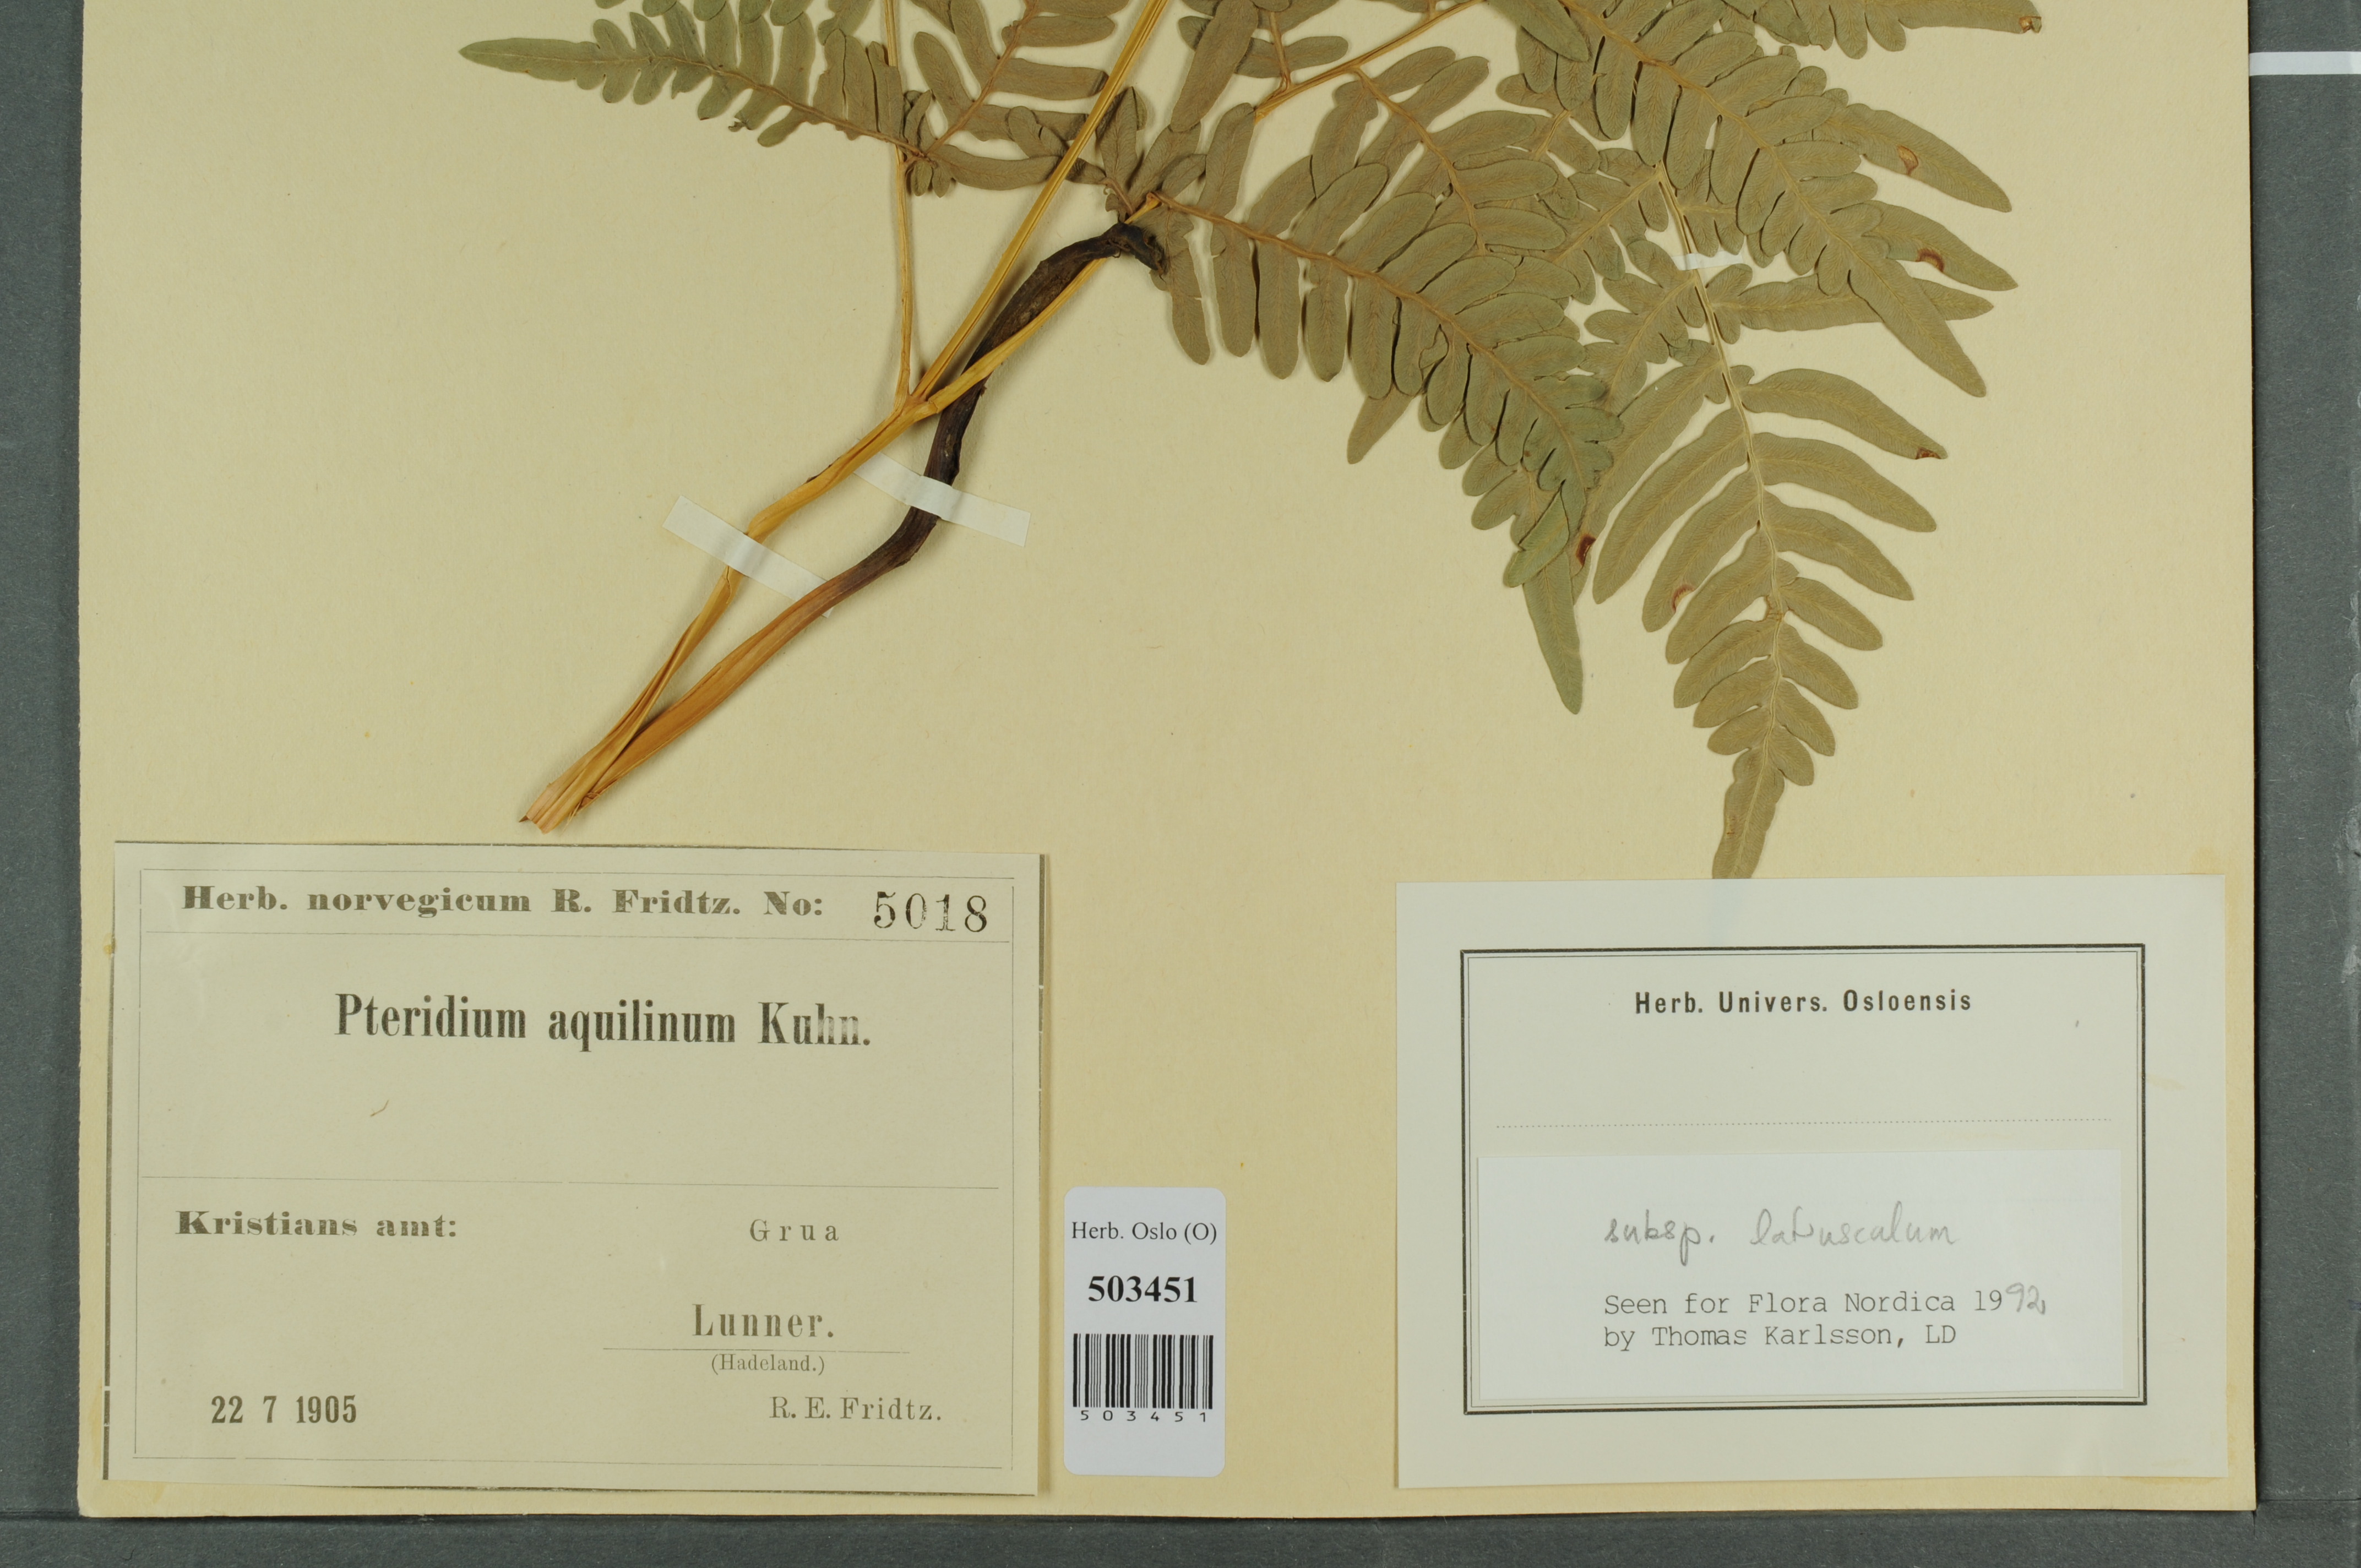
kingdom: Plantae
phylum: Tracheophyta
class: Polypodiopsida
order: Polypodiales
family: Dennstaedtiaceae
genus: Pteridium
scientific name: Pteridium aquilinum
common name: Bracken
